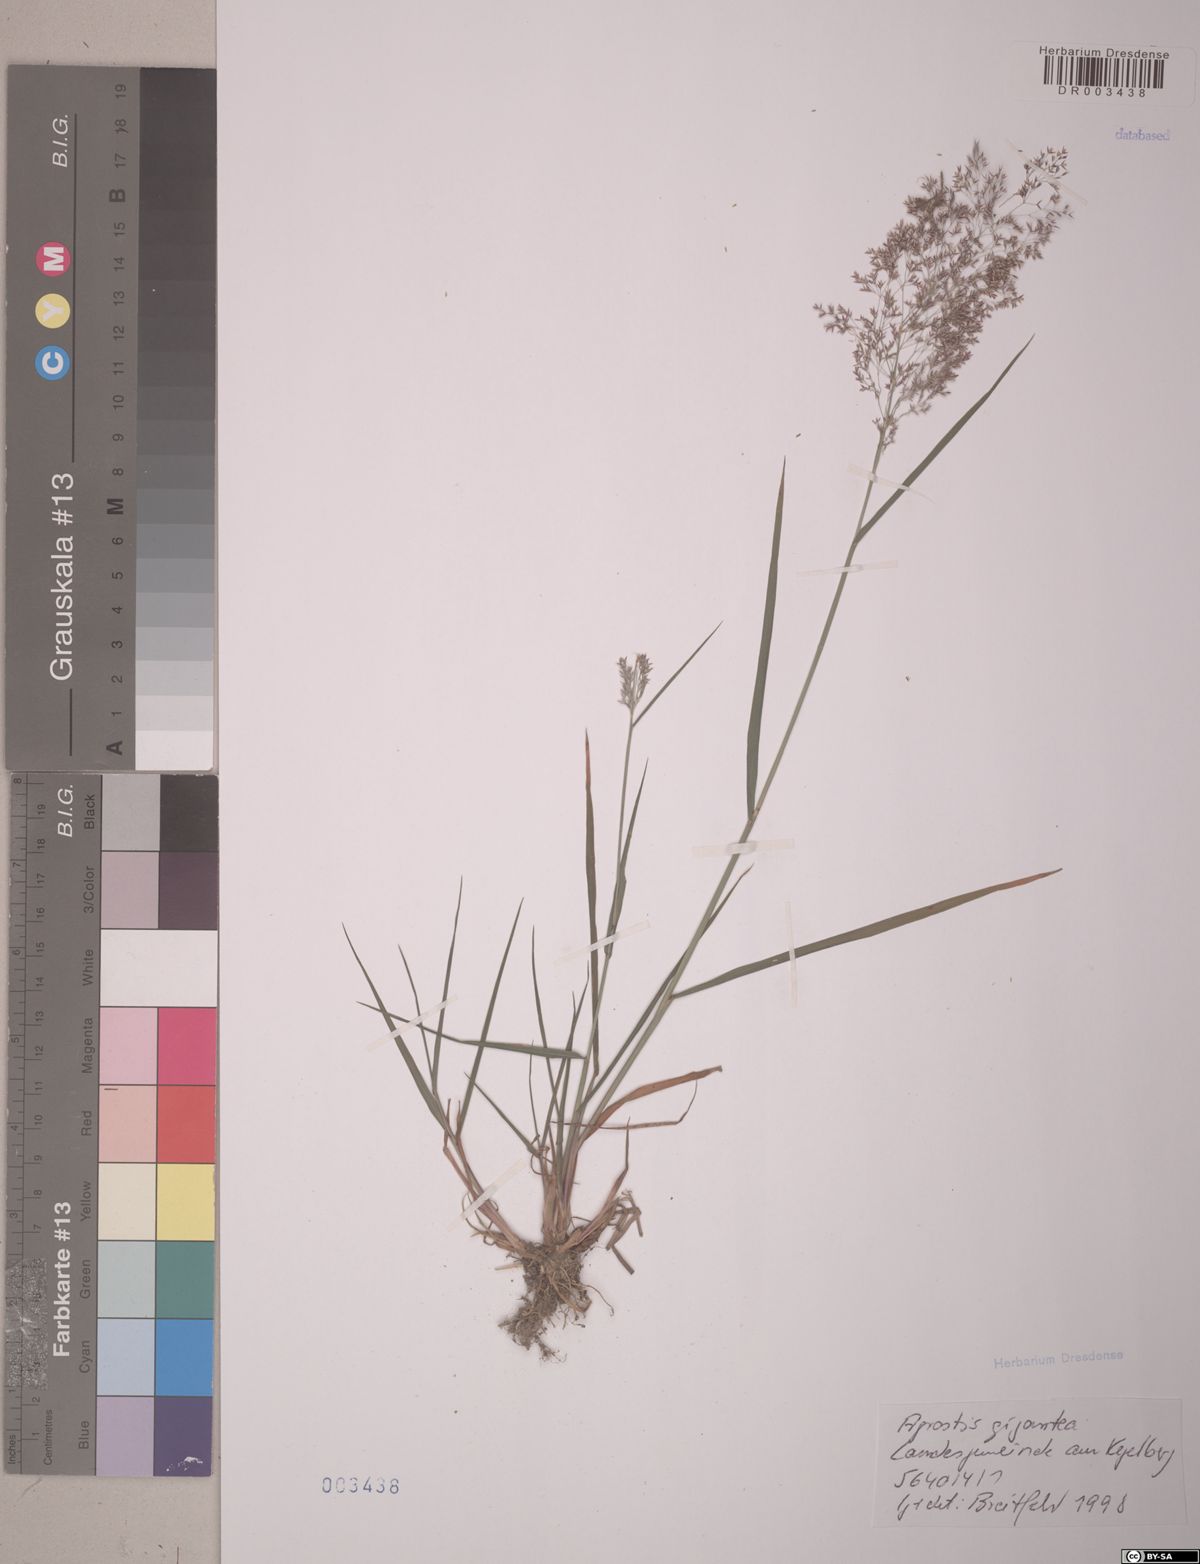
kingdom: Plantae
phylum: Tracheophyta
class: Liliopsida
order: Poales
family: Poaceae
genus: Agrostis
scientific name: Agrostis gigantea
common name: Black bent
